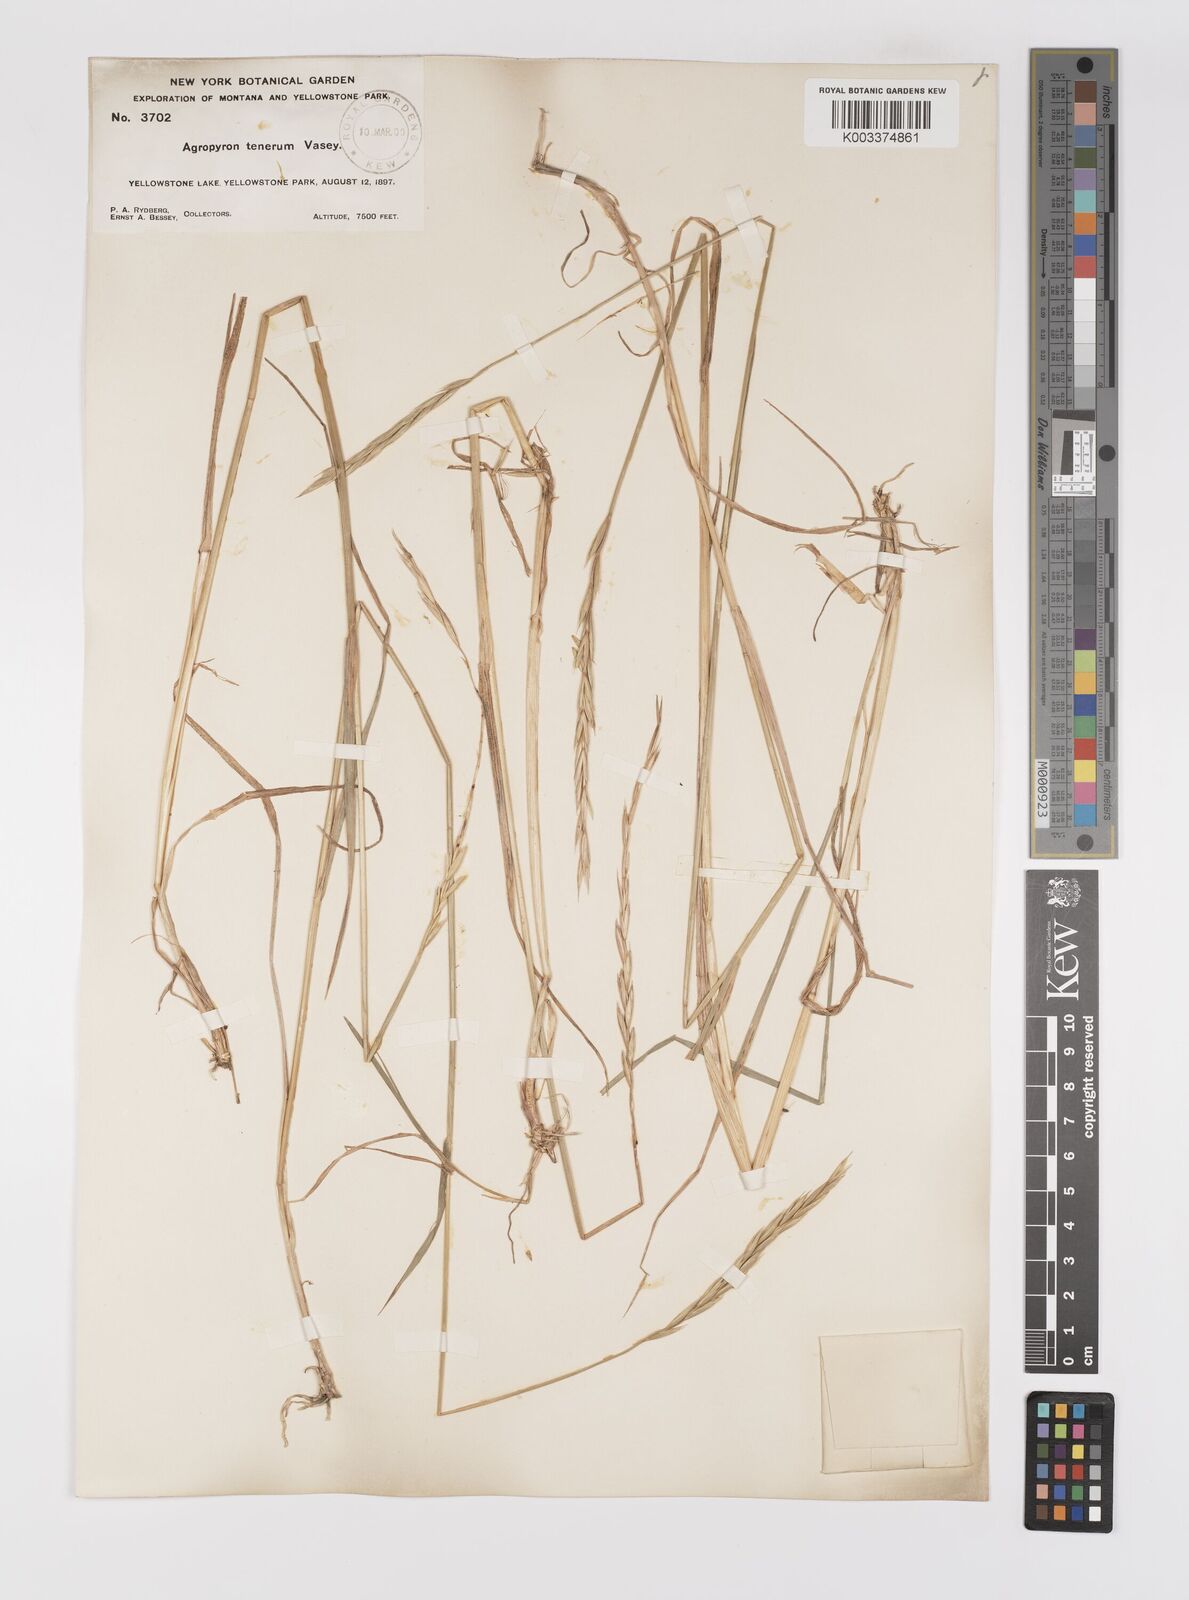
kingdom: Plantae
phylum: Tracheophyta
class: Liliopsida
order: Poales
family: Poaceae
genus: Elymus
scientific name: Elymus violaceus
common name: Arctic wheatgrass
